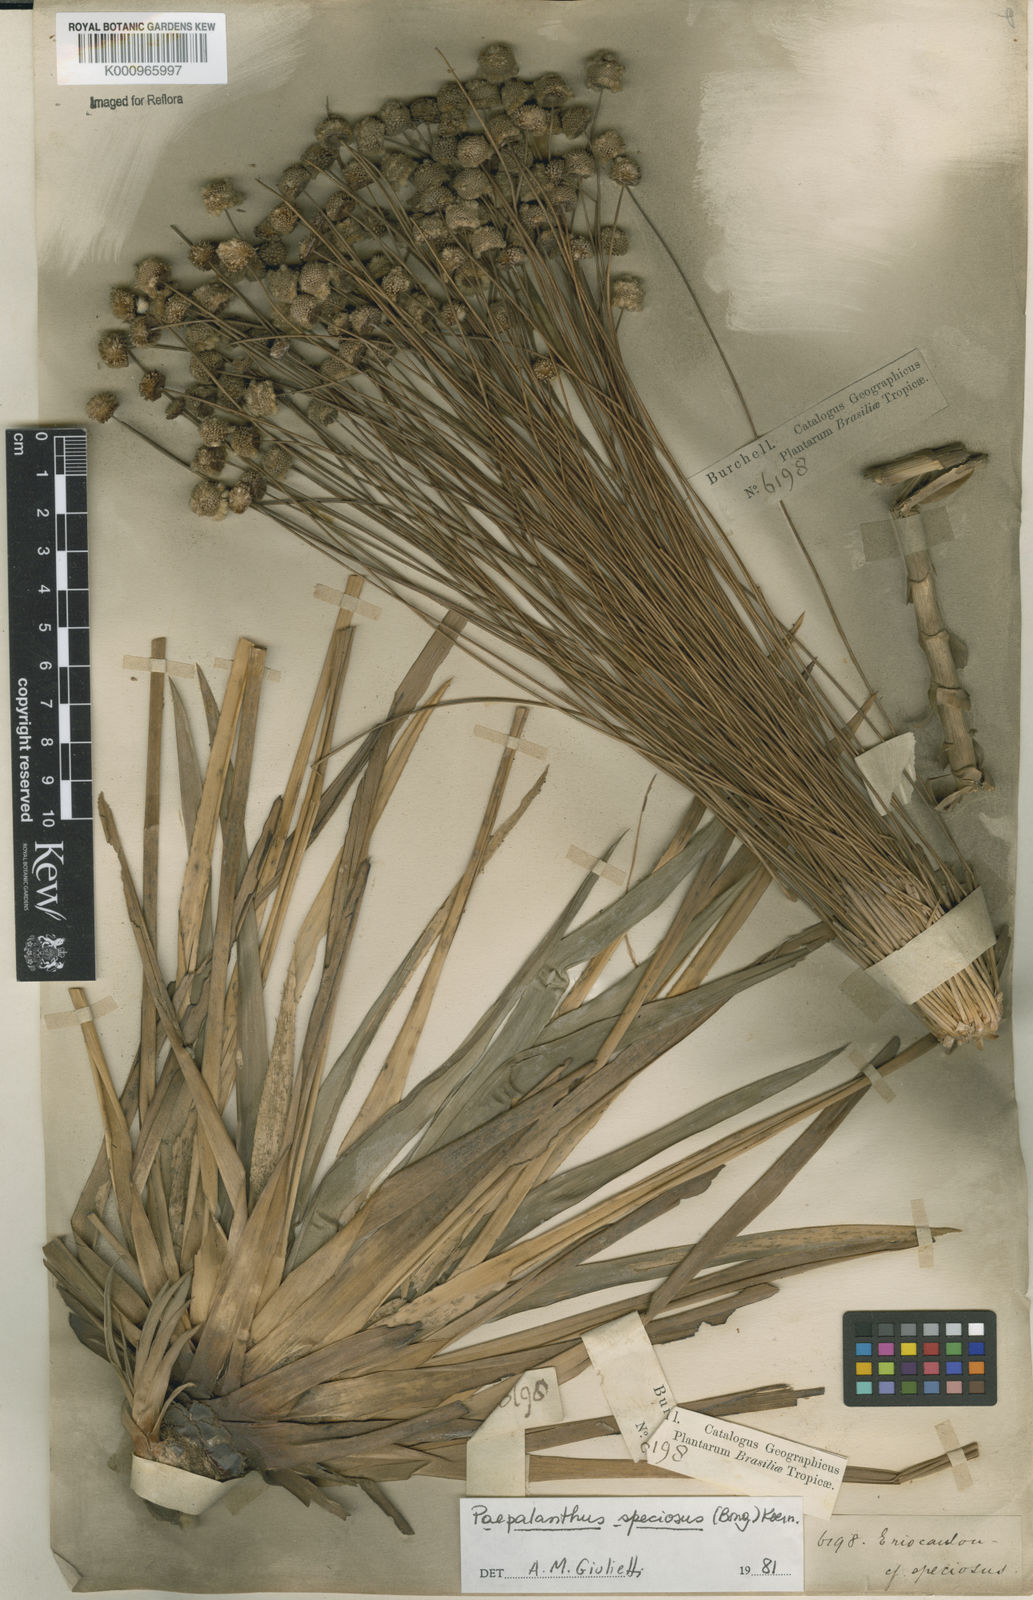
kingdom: Plantae
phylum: Tracheophyta
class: Liliopsida
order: Poales
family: Eriocaulaceae
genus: Paepalanthus
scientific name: Paepalanthus
